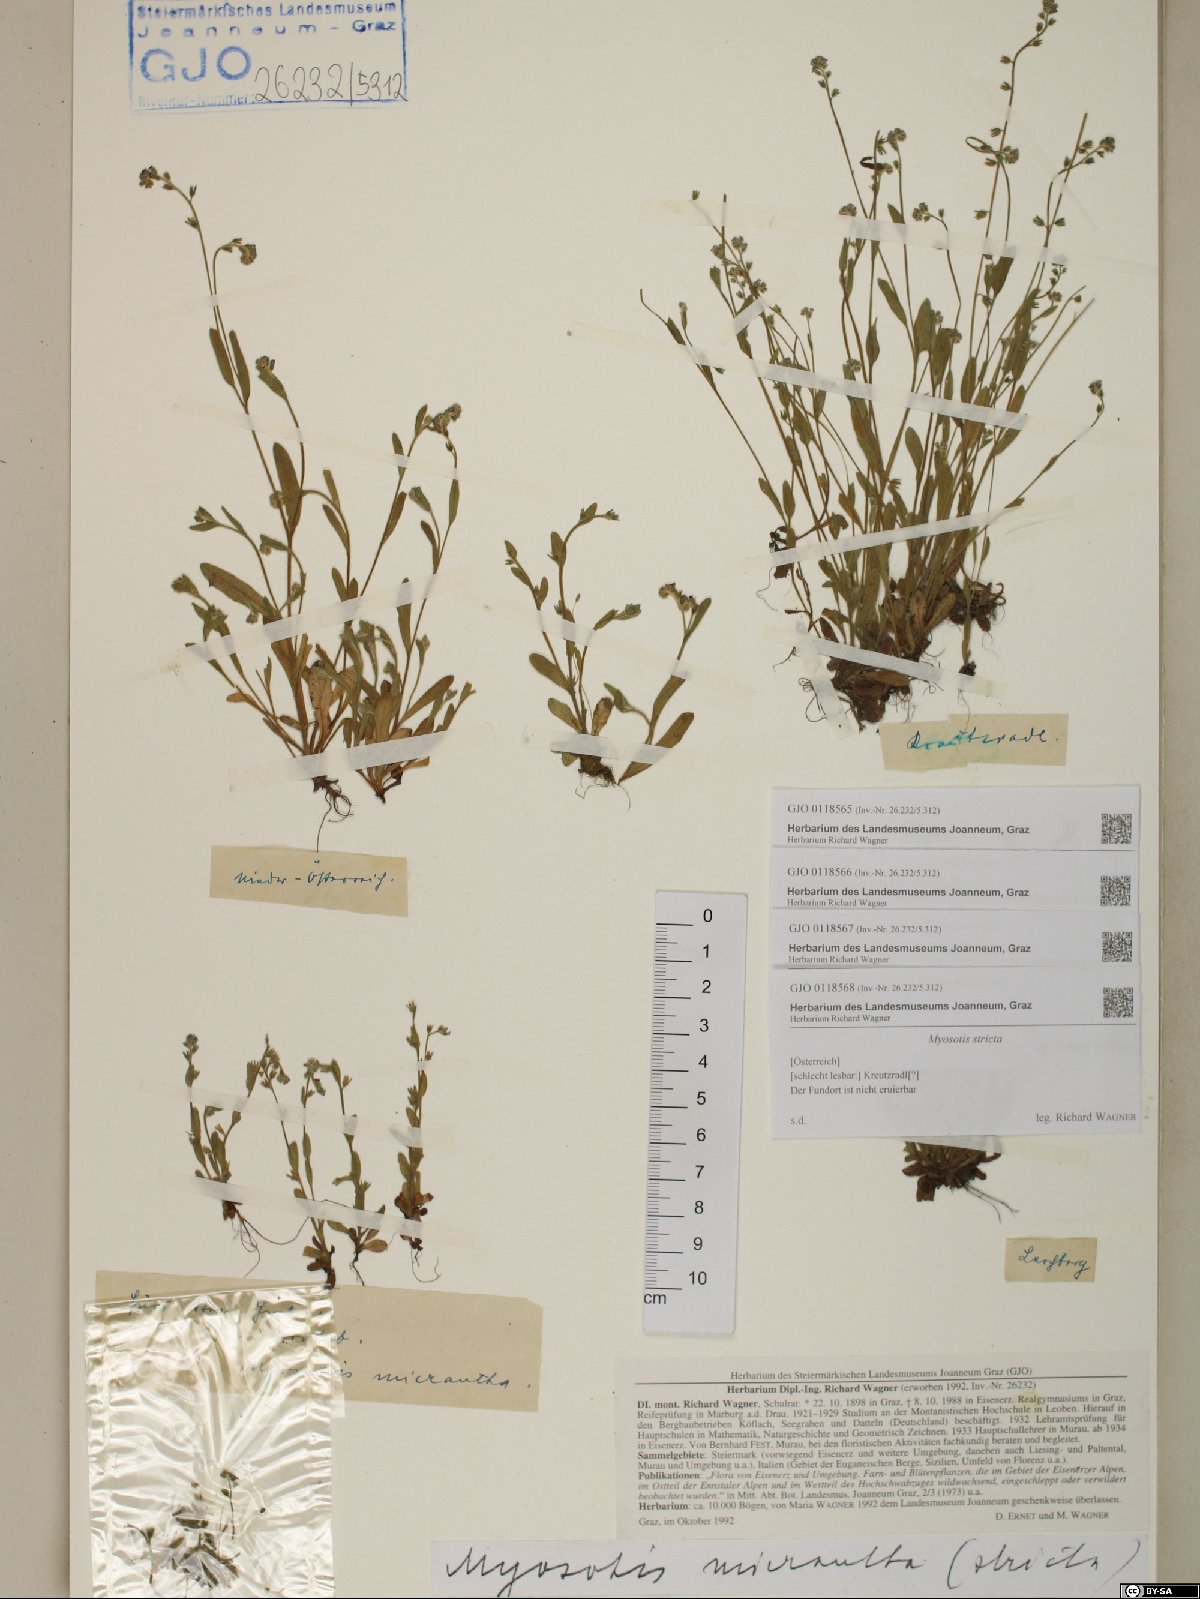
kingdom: Plantae
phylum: Tracheophyta
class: Magnoliopsida
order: Boraginales
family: Boraginaceae
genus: Myosotis
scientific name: Myosotis stricta
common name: Strict forget-me-not
